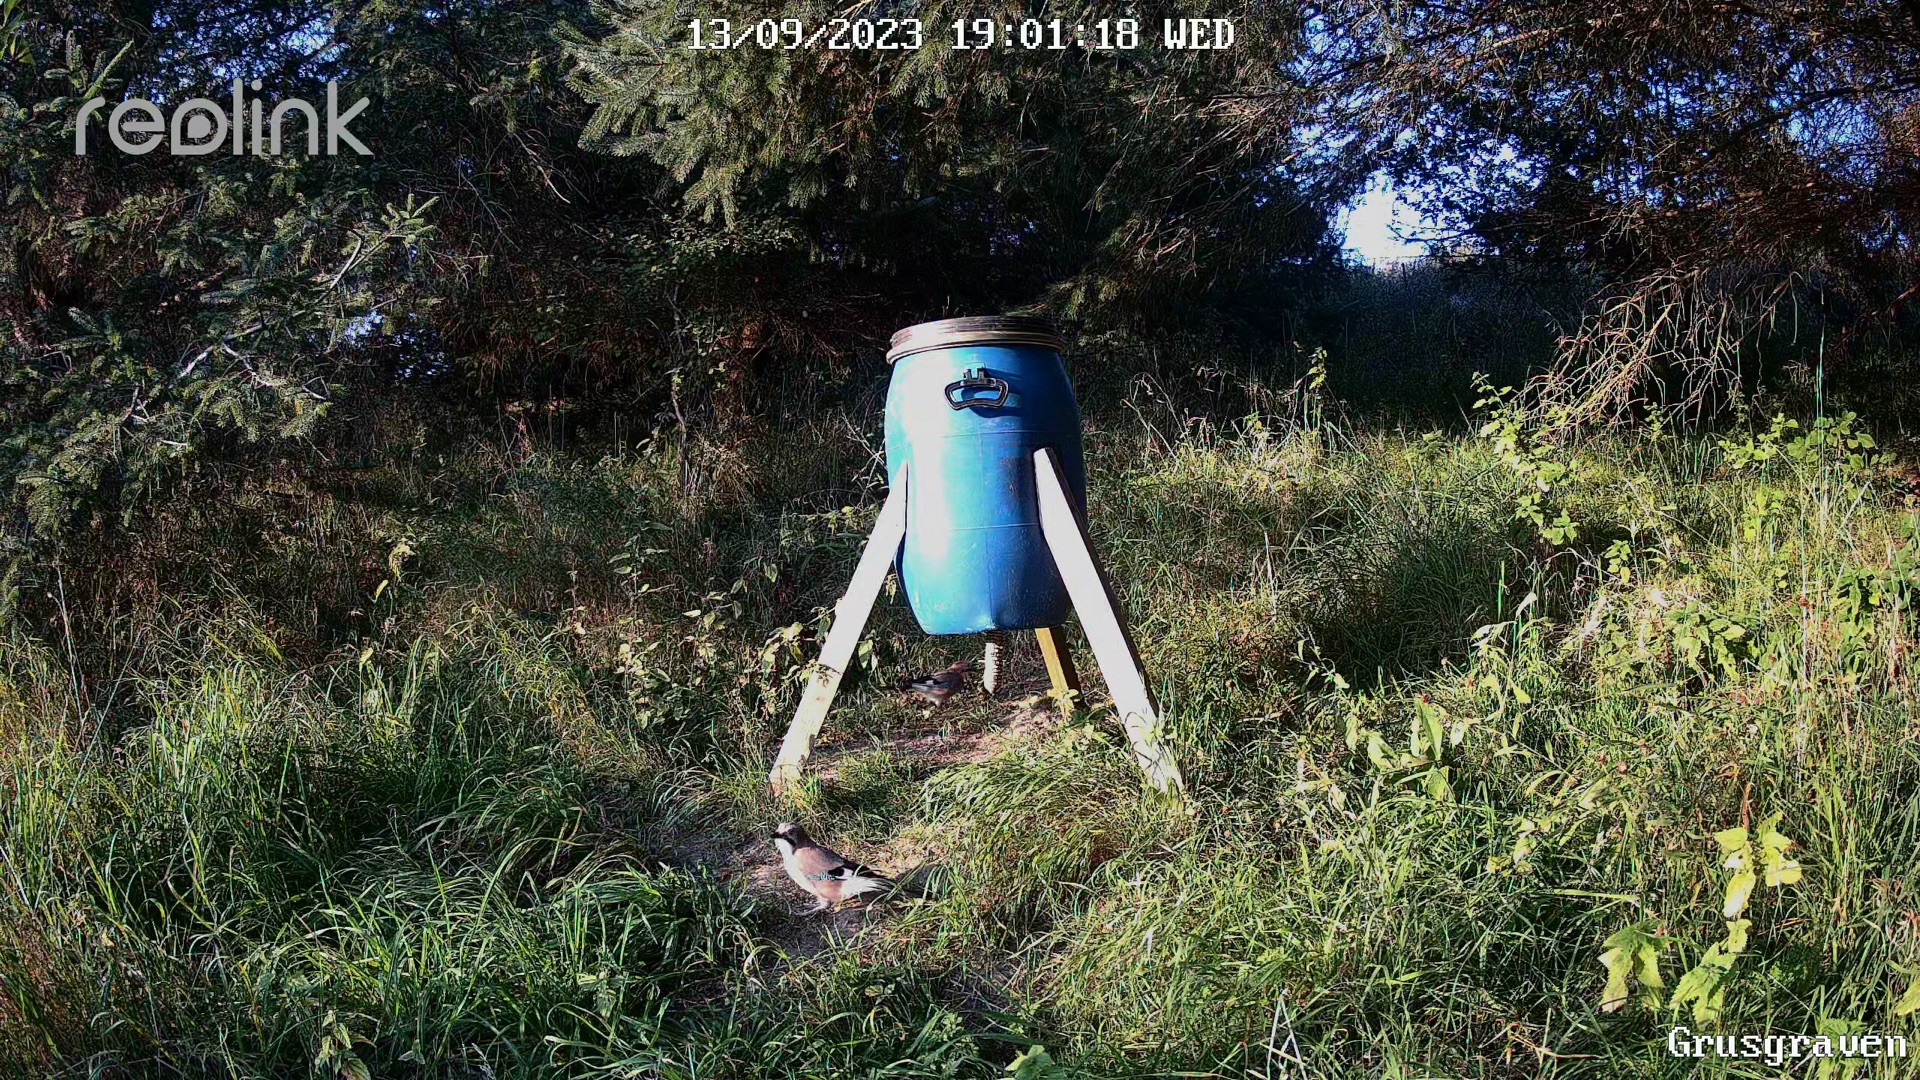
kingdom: Animalia
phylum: Chordata
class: Aves
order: Passeriformes
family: Corvidae
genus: Garrulus
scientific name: Garrulus glandarius
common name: Skovskade
